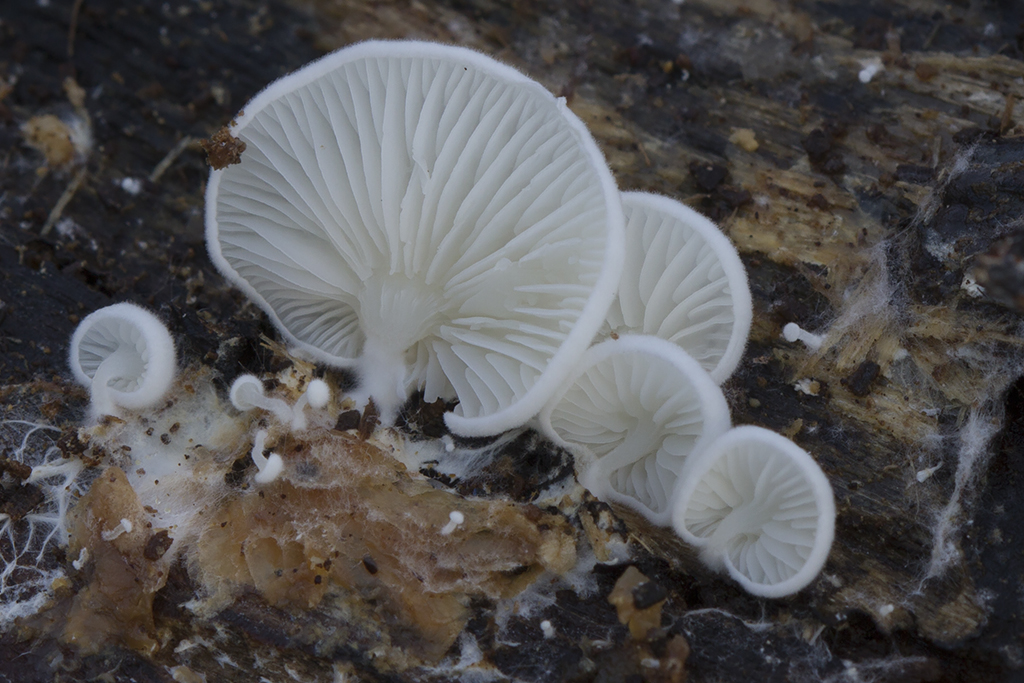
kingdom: Fungi
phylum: Basidiomycota
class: Agaricomycetes
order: Agaricales
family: Entolomataceae
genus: Clitopilus
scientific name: Clitopilus baronii
